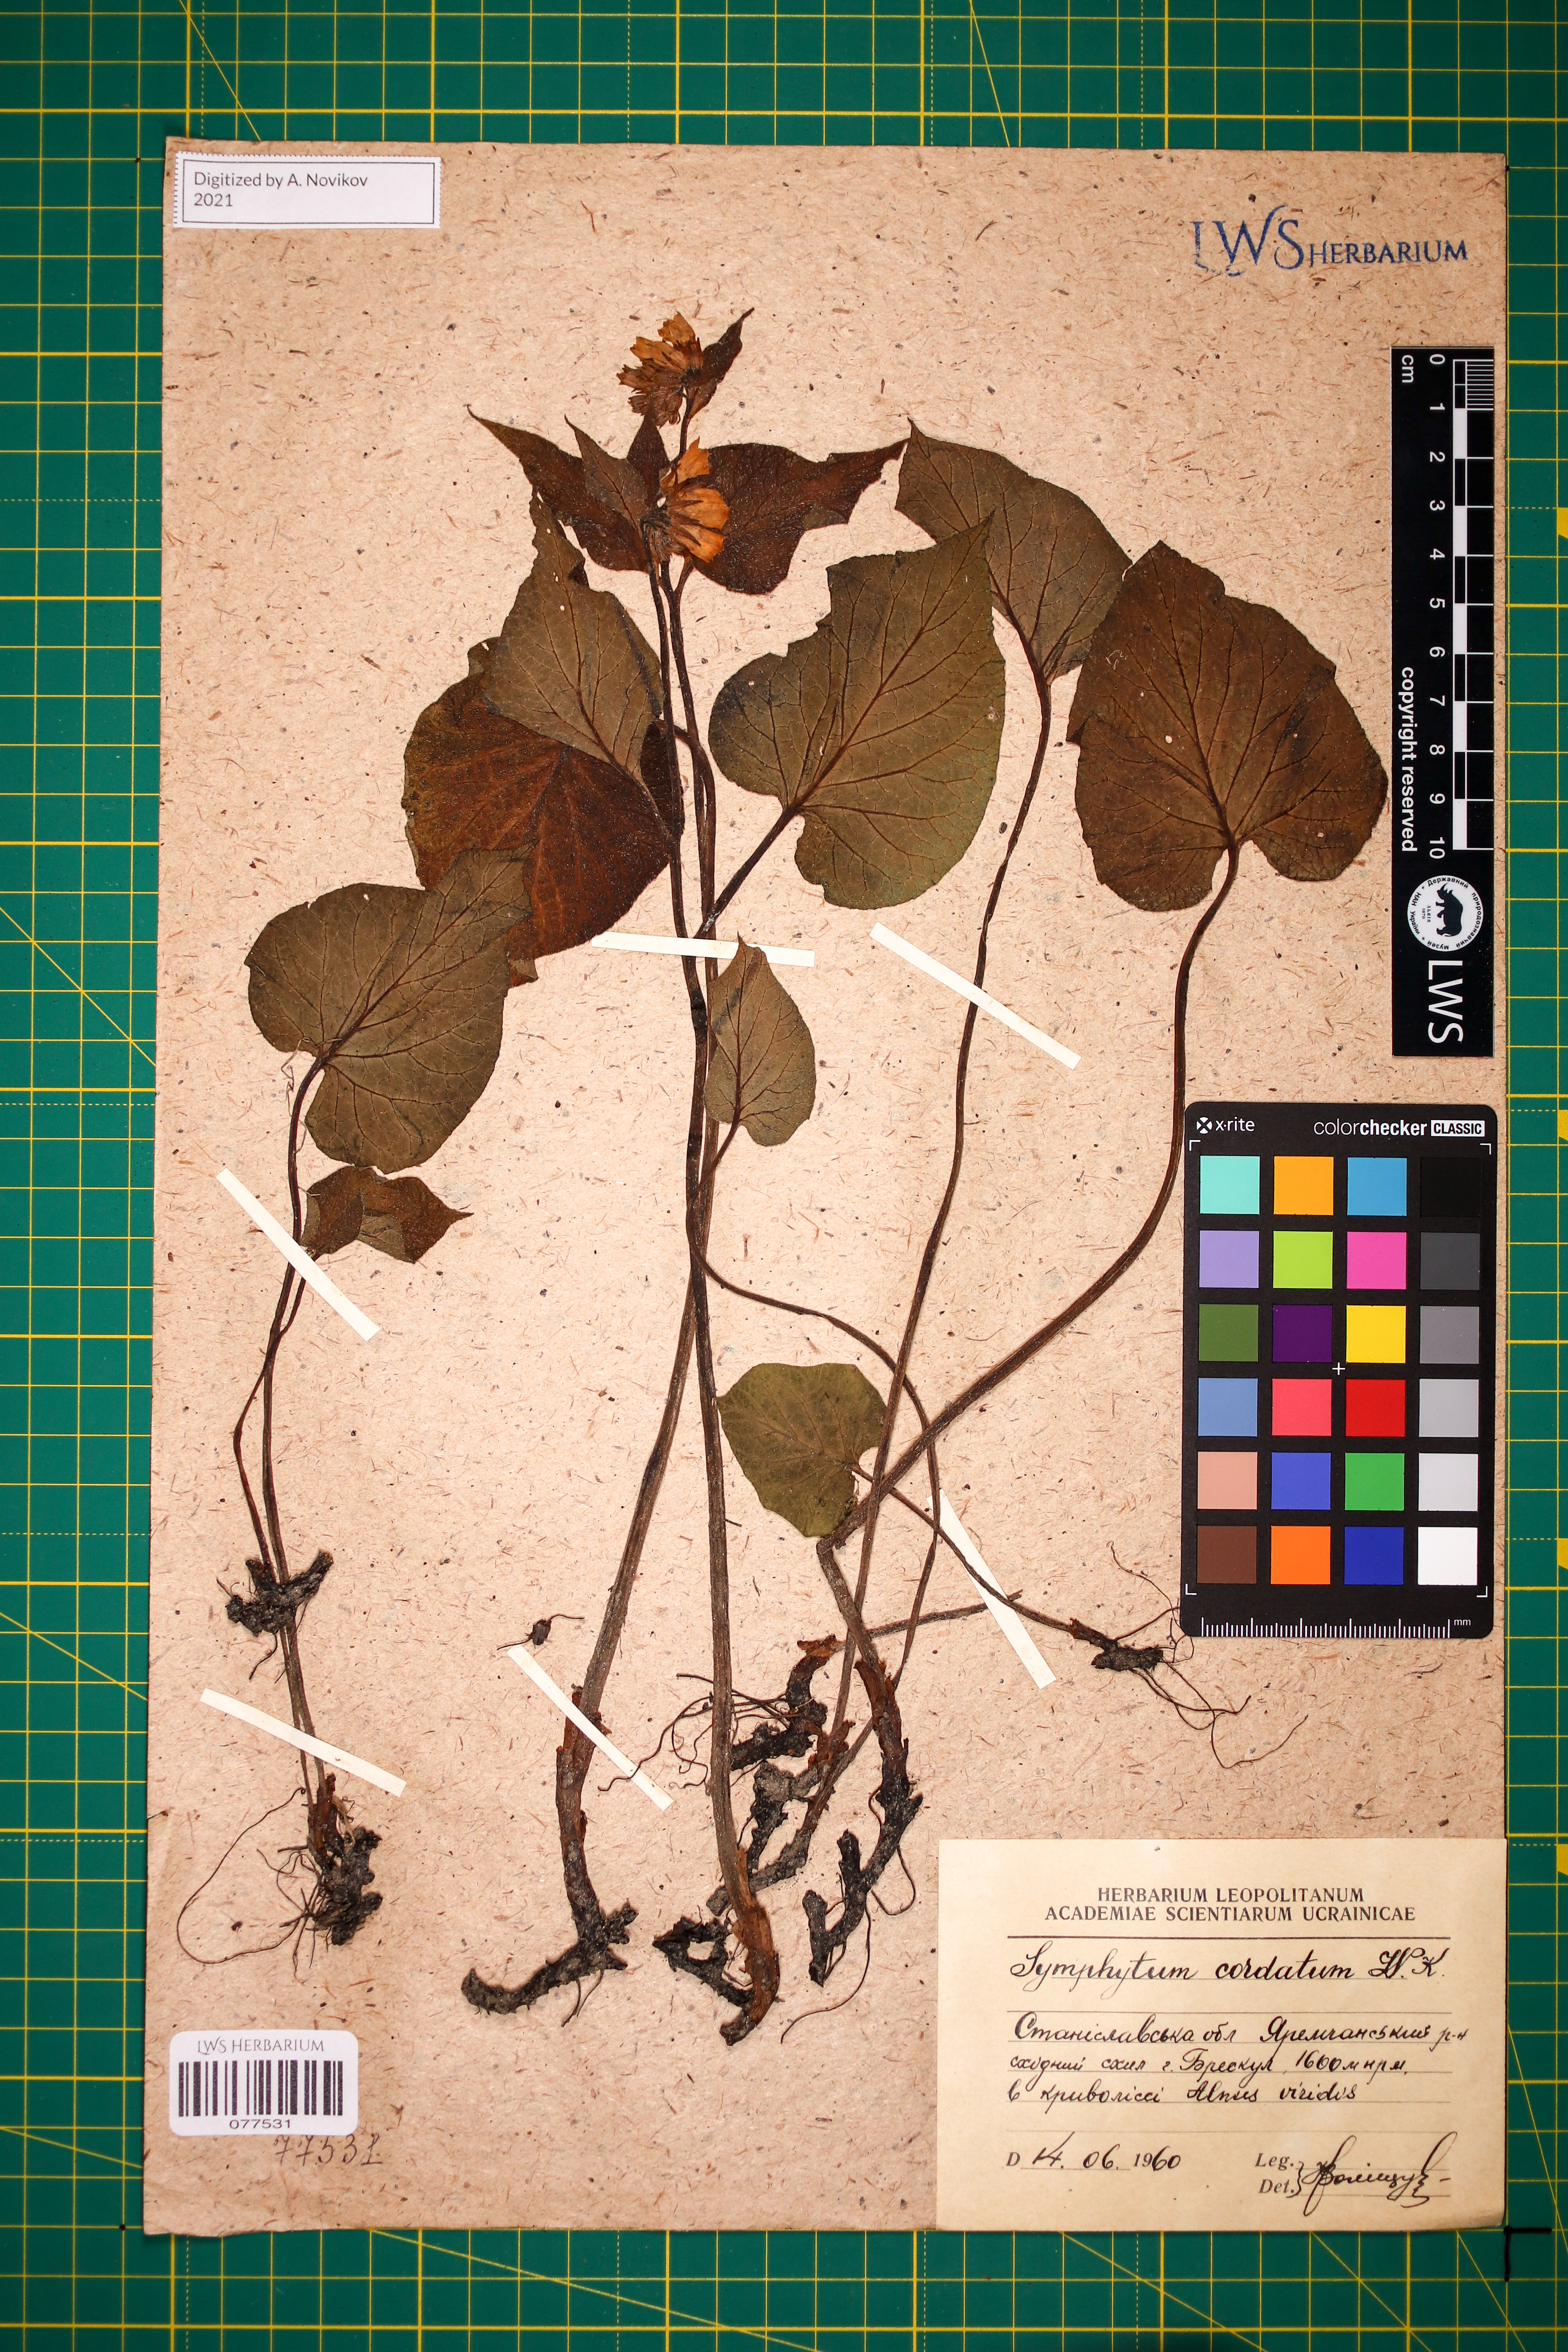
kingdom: Plantae
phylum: Tracheophyta
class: Magnoliopsida
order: Boraginales
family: Boraginaceae
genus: Symphytum
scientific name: Symphytum cordatum
